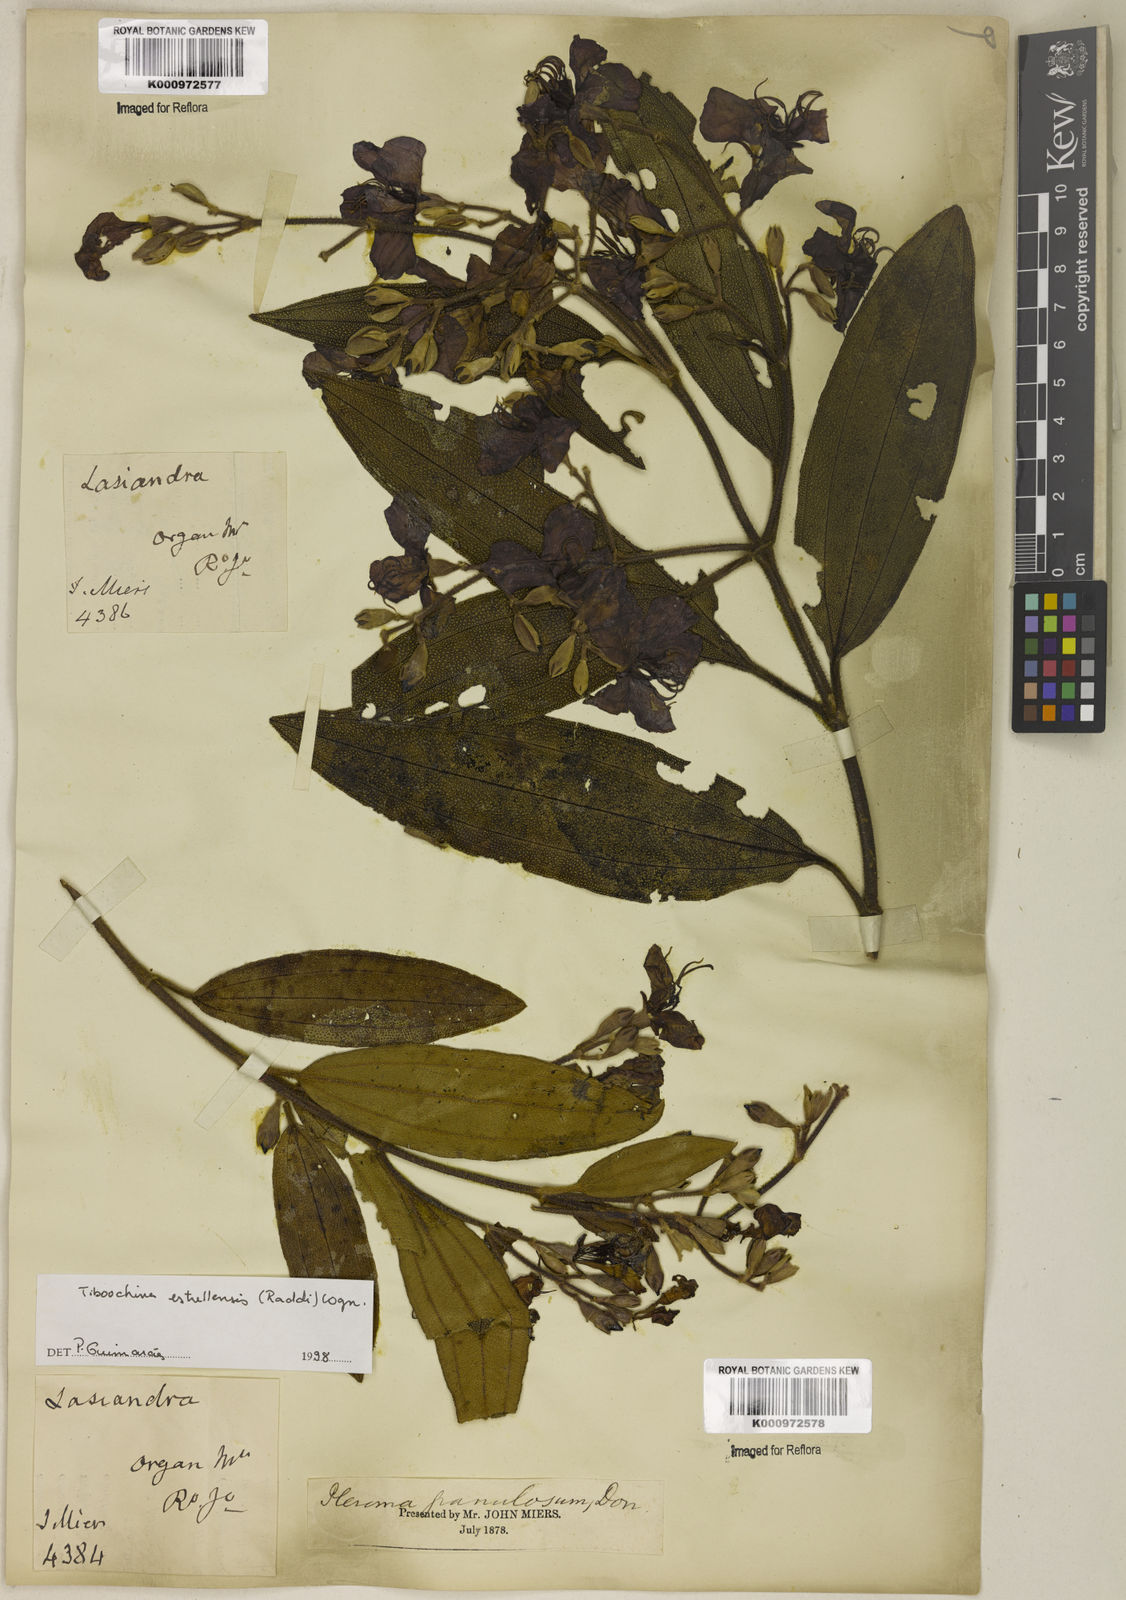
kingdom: Plantae
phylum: Tracheophyta
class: Magnoliopsida
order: Myrtales
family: Melastomataceae
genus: Pleroma
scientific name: Pleroma estrellense
